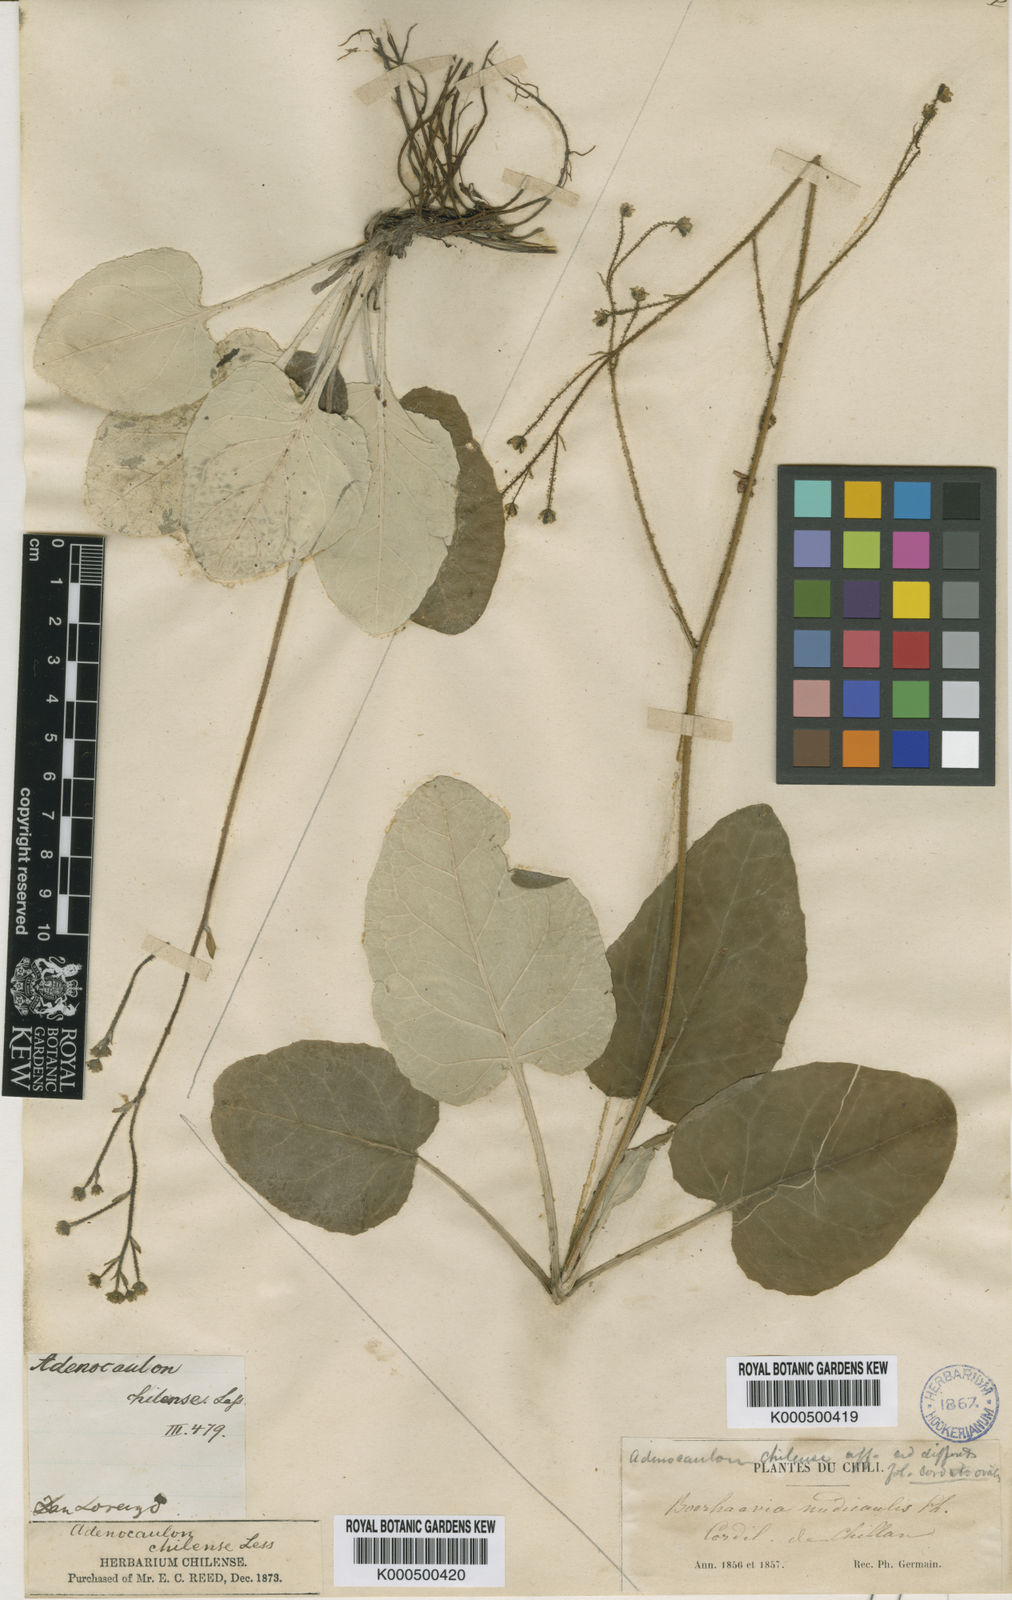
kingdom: Plantae
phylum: Tracheophyta
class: Magnoliopsida
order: Asterales
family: Asteraceae
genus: Adenocaulon
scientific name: Adenocaulon chilense
